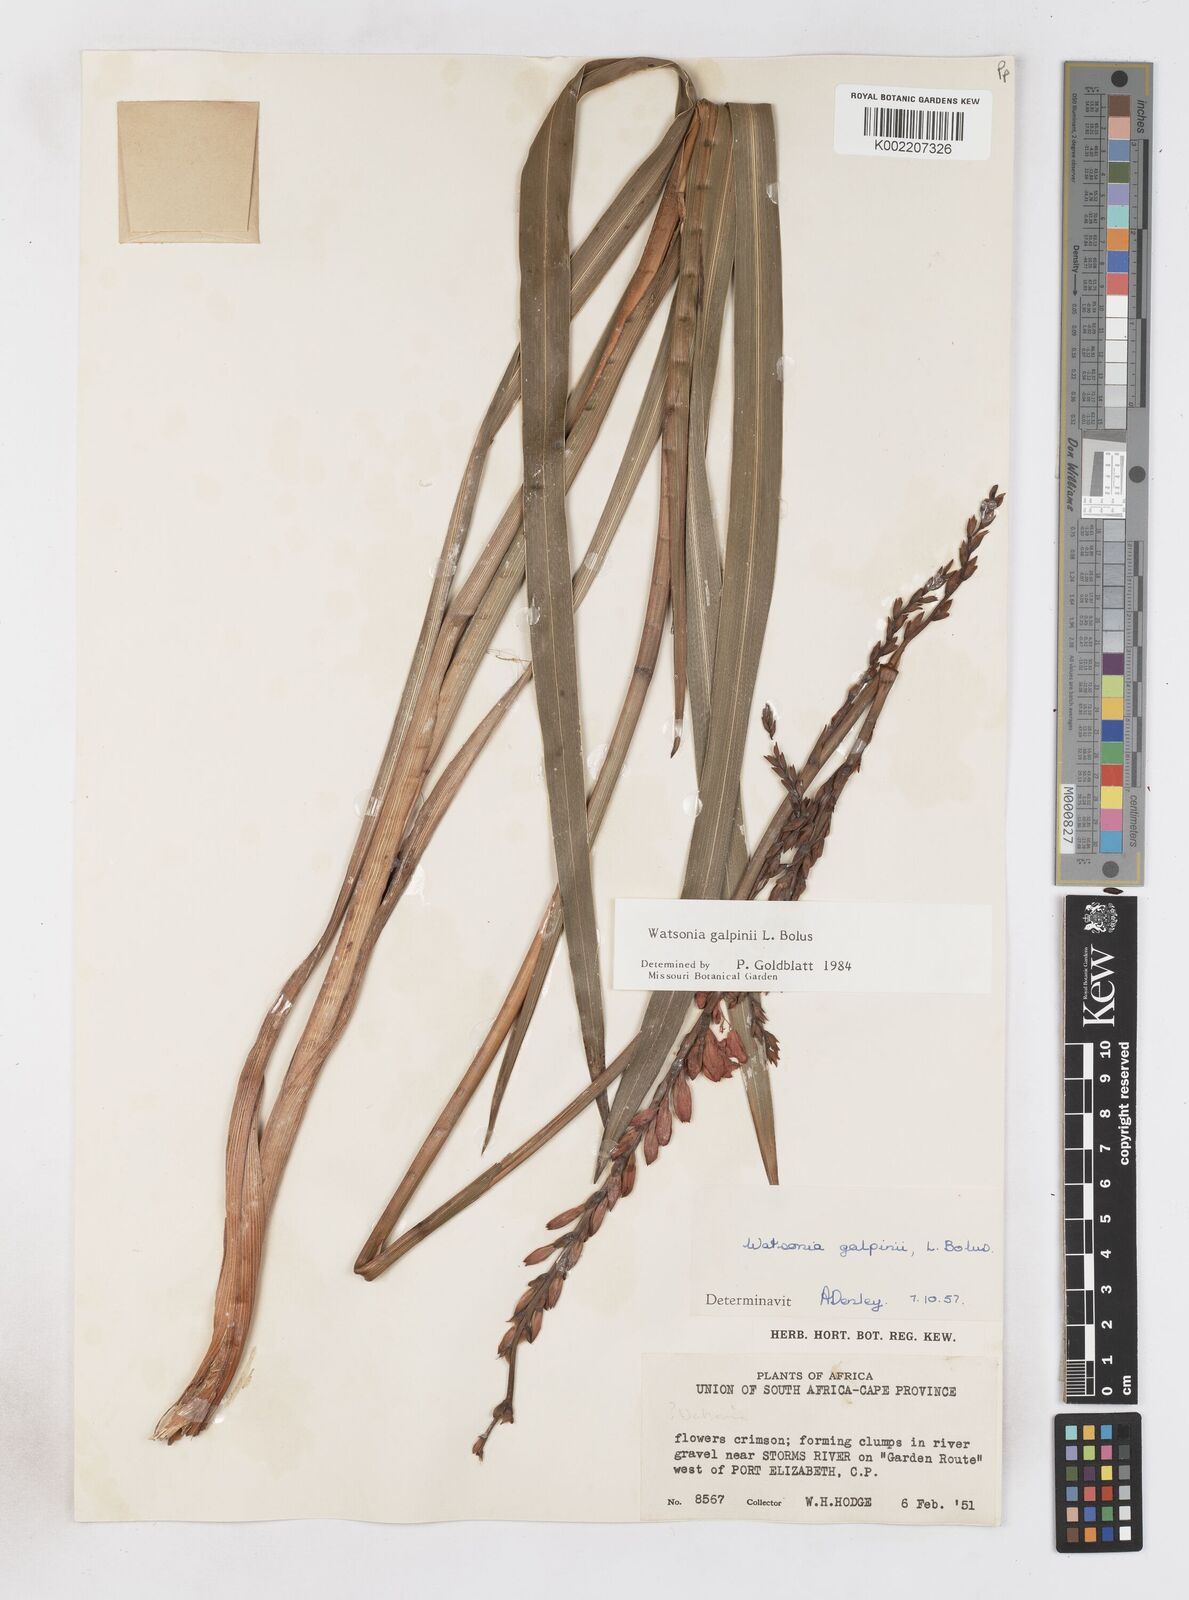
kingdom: Plantae
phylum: Tracheophyta
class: Liliopsida
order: Asparagales
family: Iridaceae
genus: Watsonia
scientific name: Watsonia galpinii
